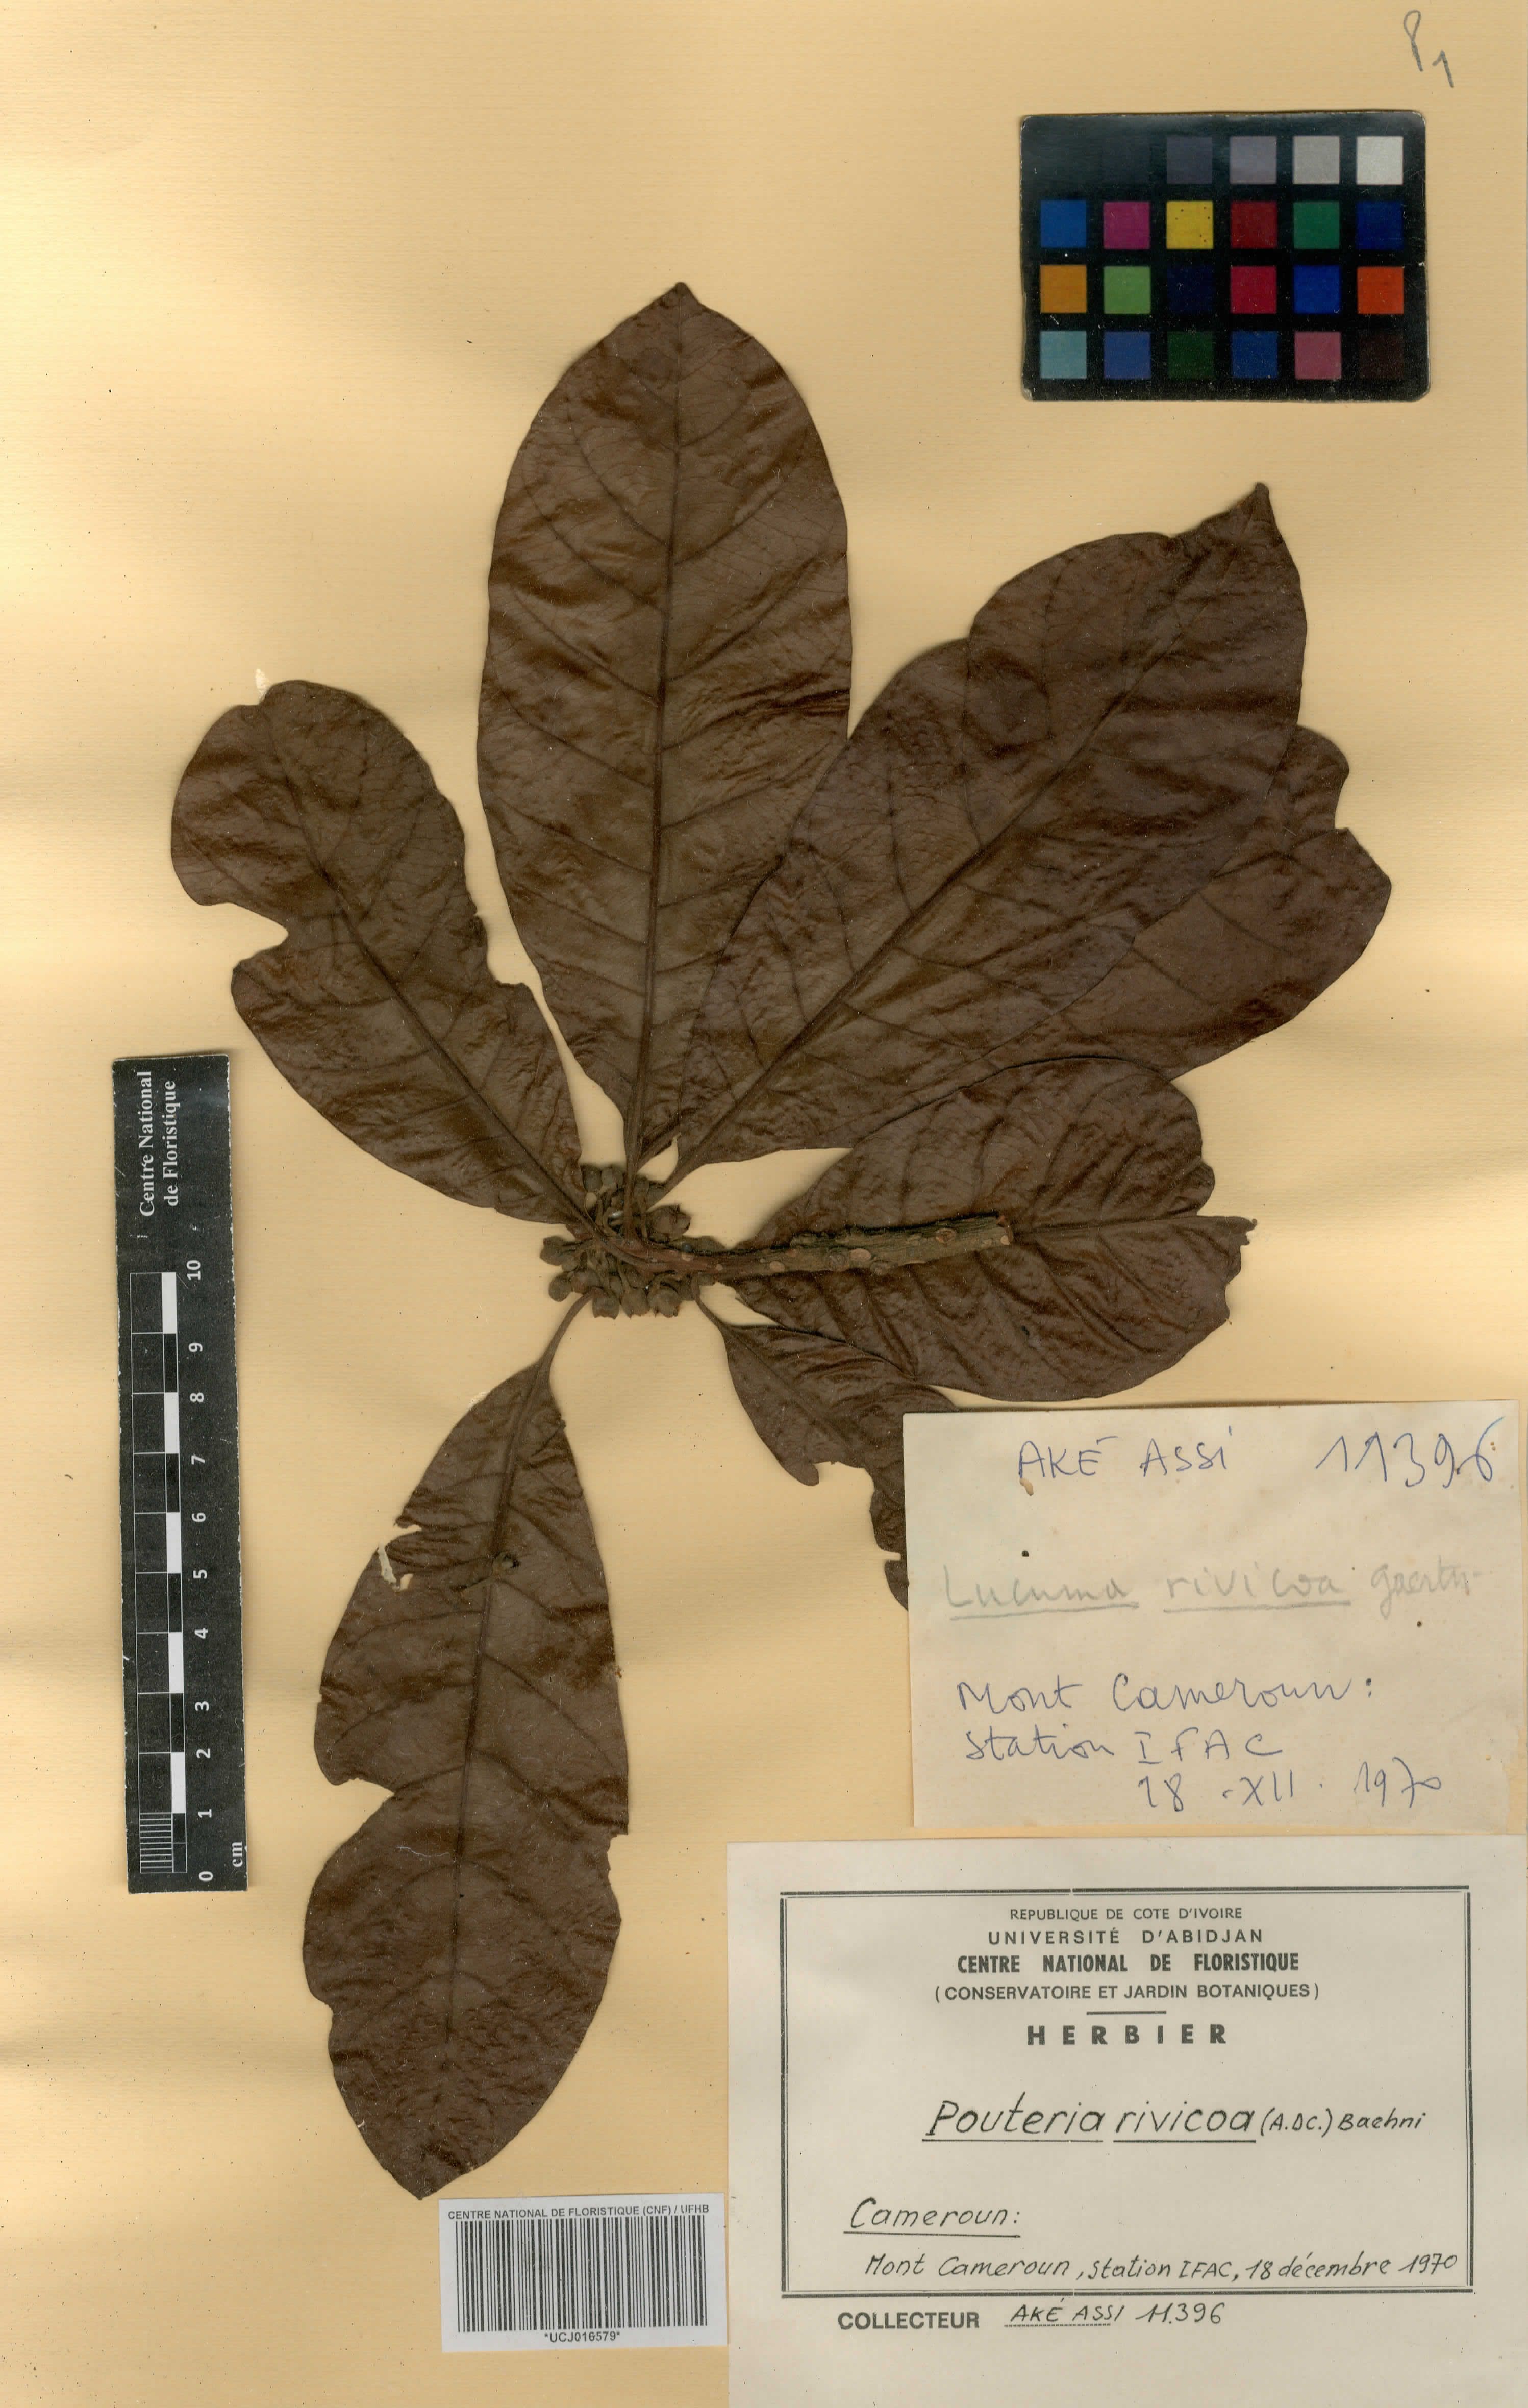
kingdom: Plantae
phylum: Tracheophyta
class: Magnoliopsida
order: Ericales
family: Sapotaceae
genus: Pouteria
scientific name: Pouteria macrophylla
